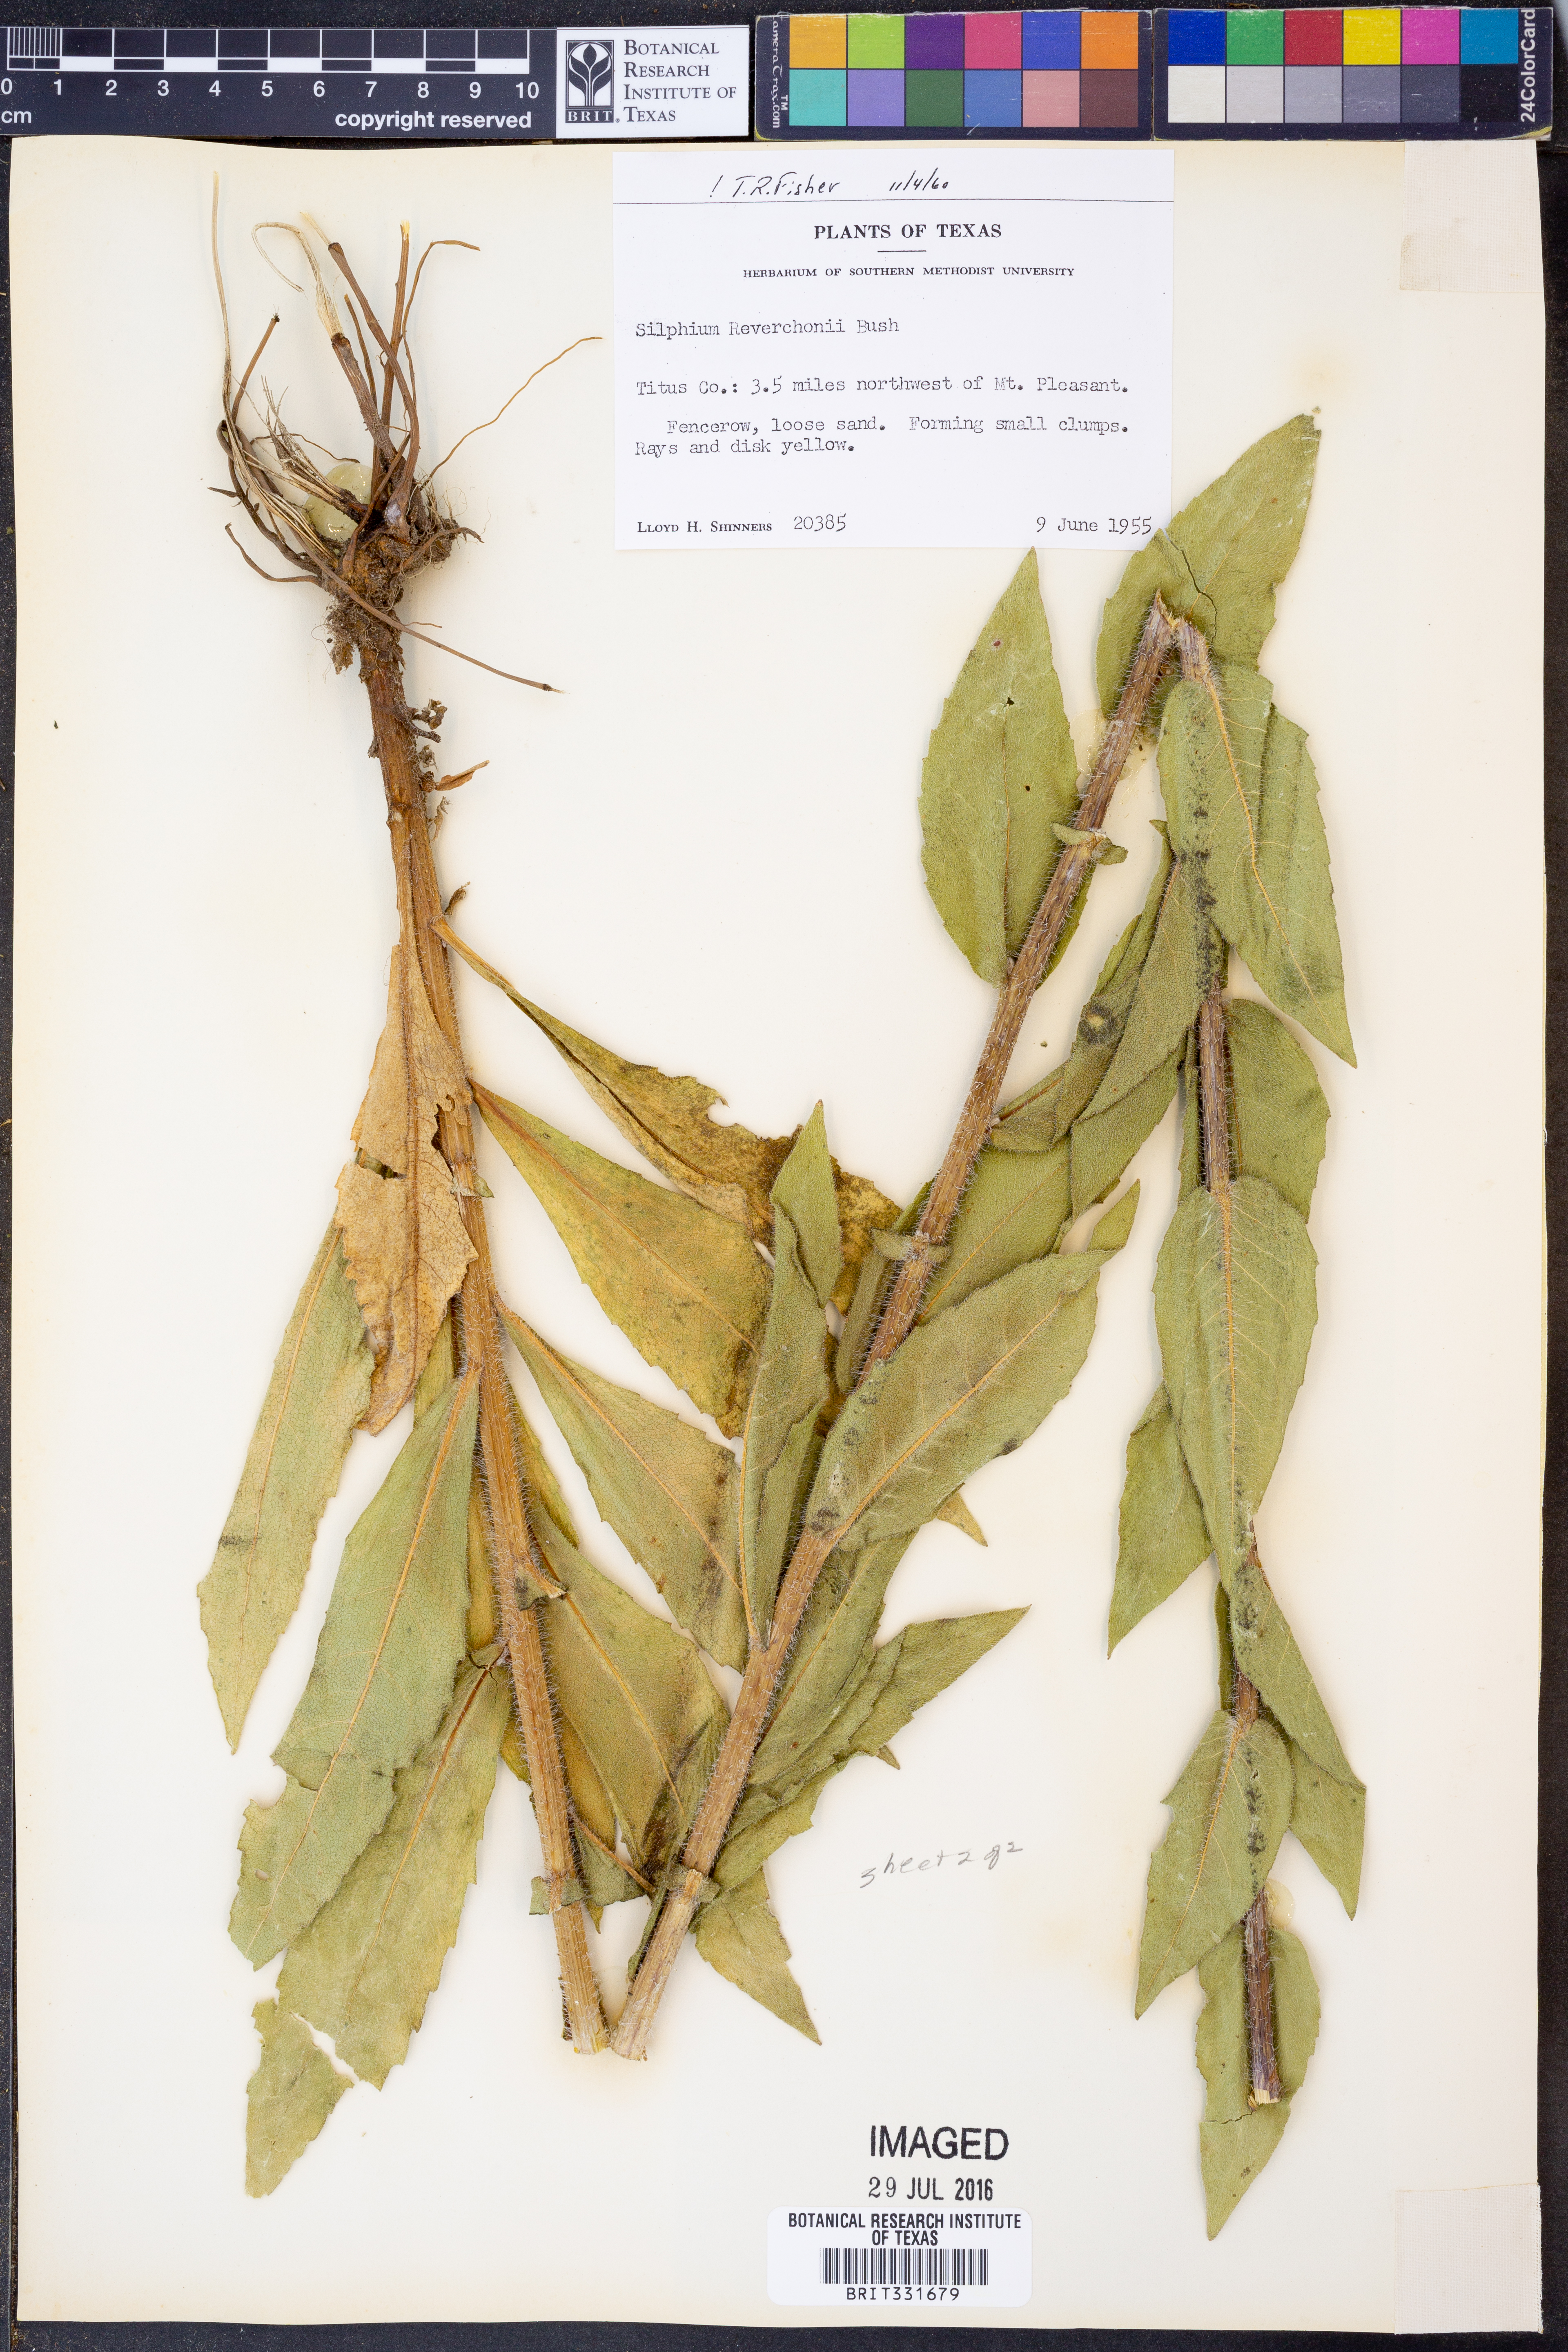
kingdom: Plantae
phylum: Tracheophyta
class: Magnoliopsida
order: Asterales
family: Asteraceae
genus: Silphium
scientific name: Silphium radula
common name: Roughleaf rosinweed
